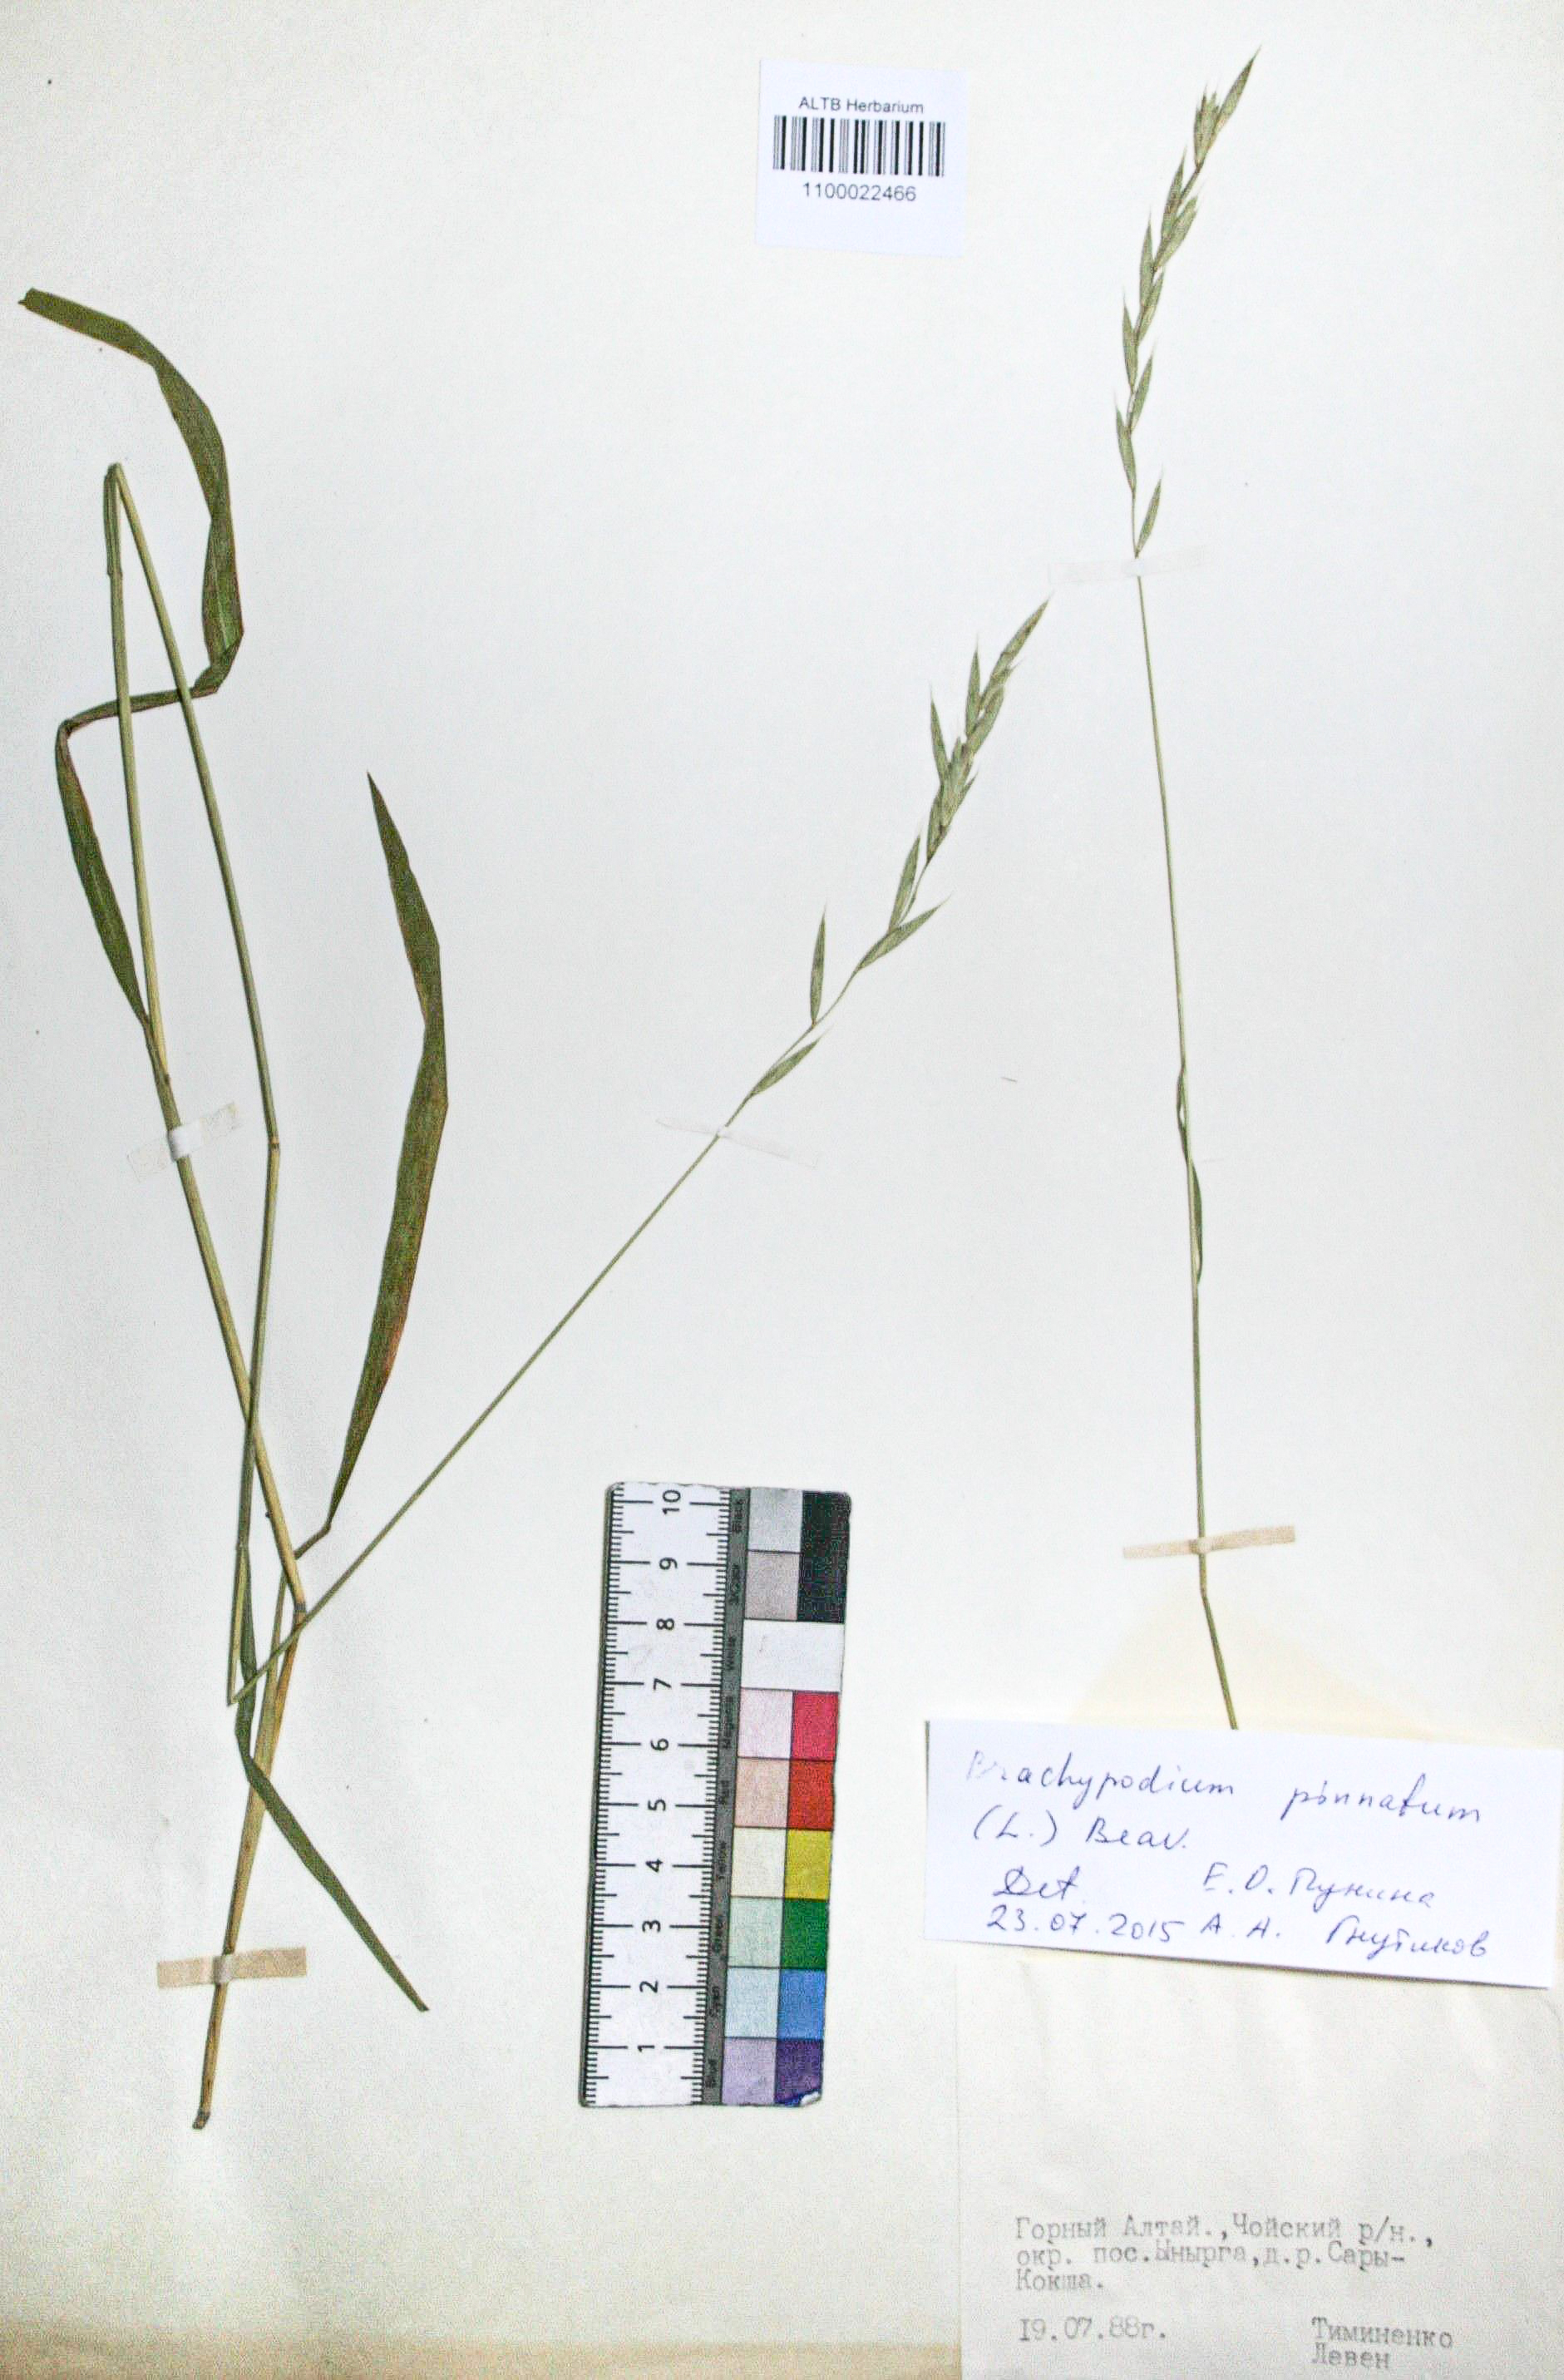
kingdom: Plantae
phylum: Tracheophyta
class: Liliopsida
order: Poales
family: Poaceae
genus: Brachypodium
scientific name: Brachypodium pinnatum
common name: Tor grass
